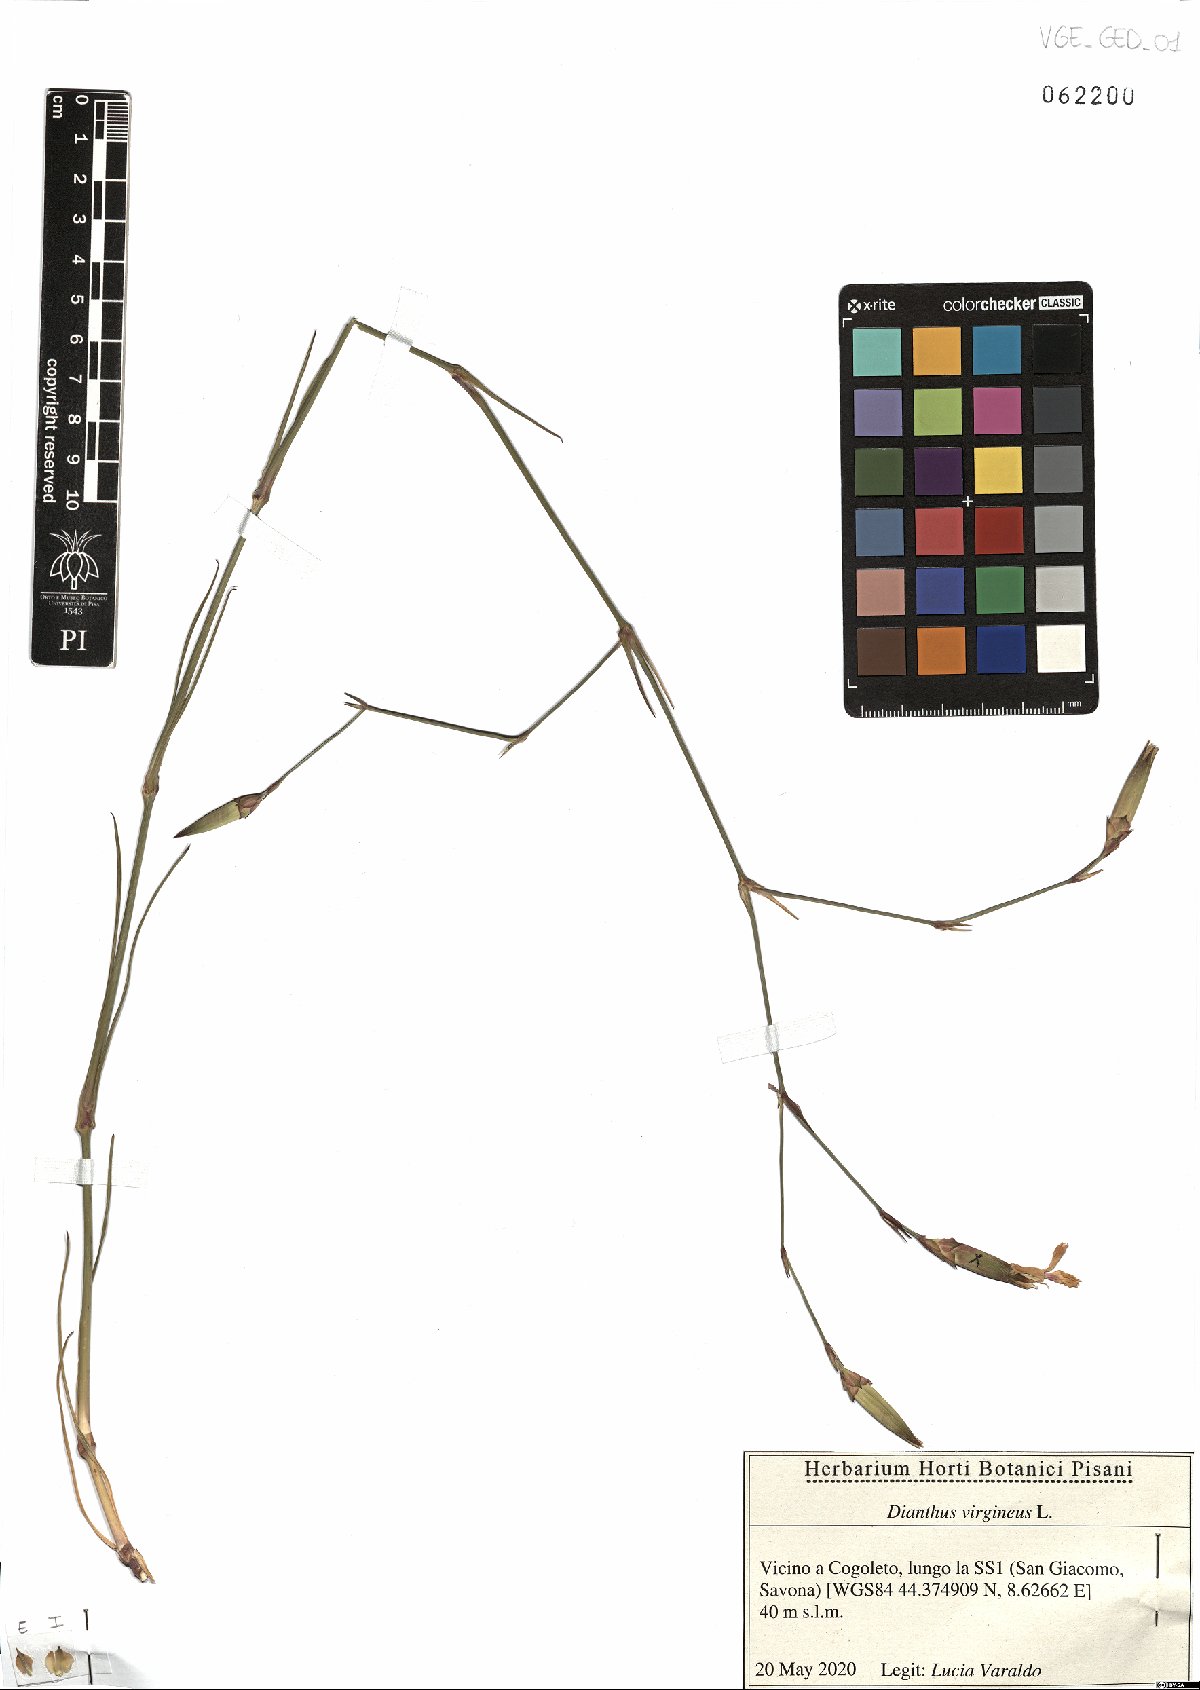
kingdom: Plantae
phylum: Tracheophyta
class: Magnoliopsida
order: Caryophyllales
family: Caryophyllaceae
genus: Dianthus
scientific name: Dianthus virgineus
